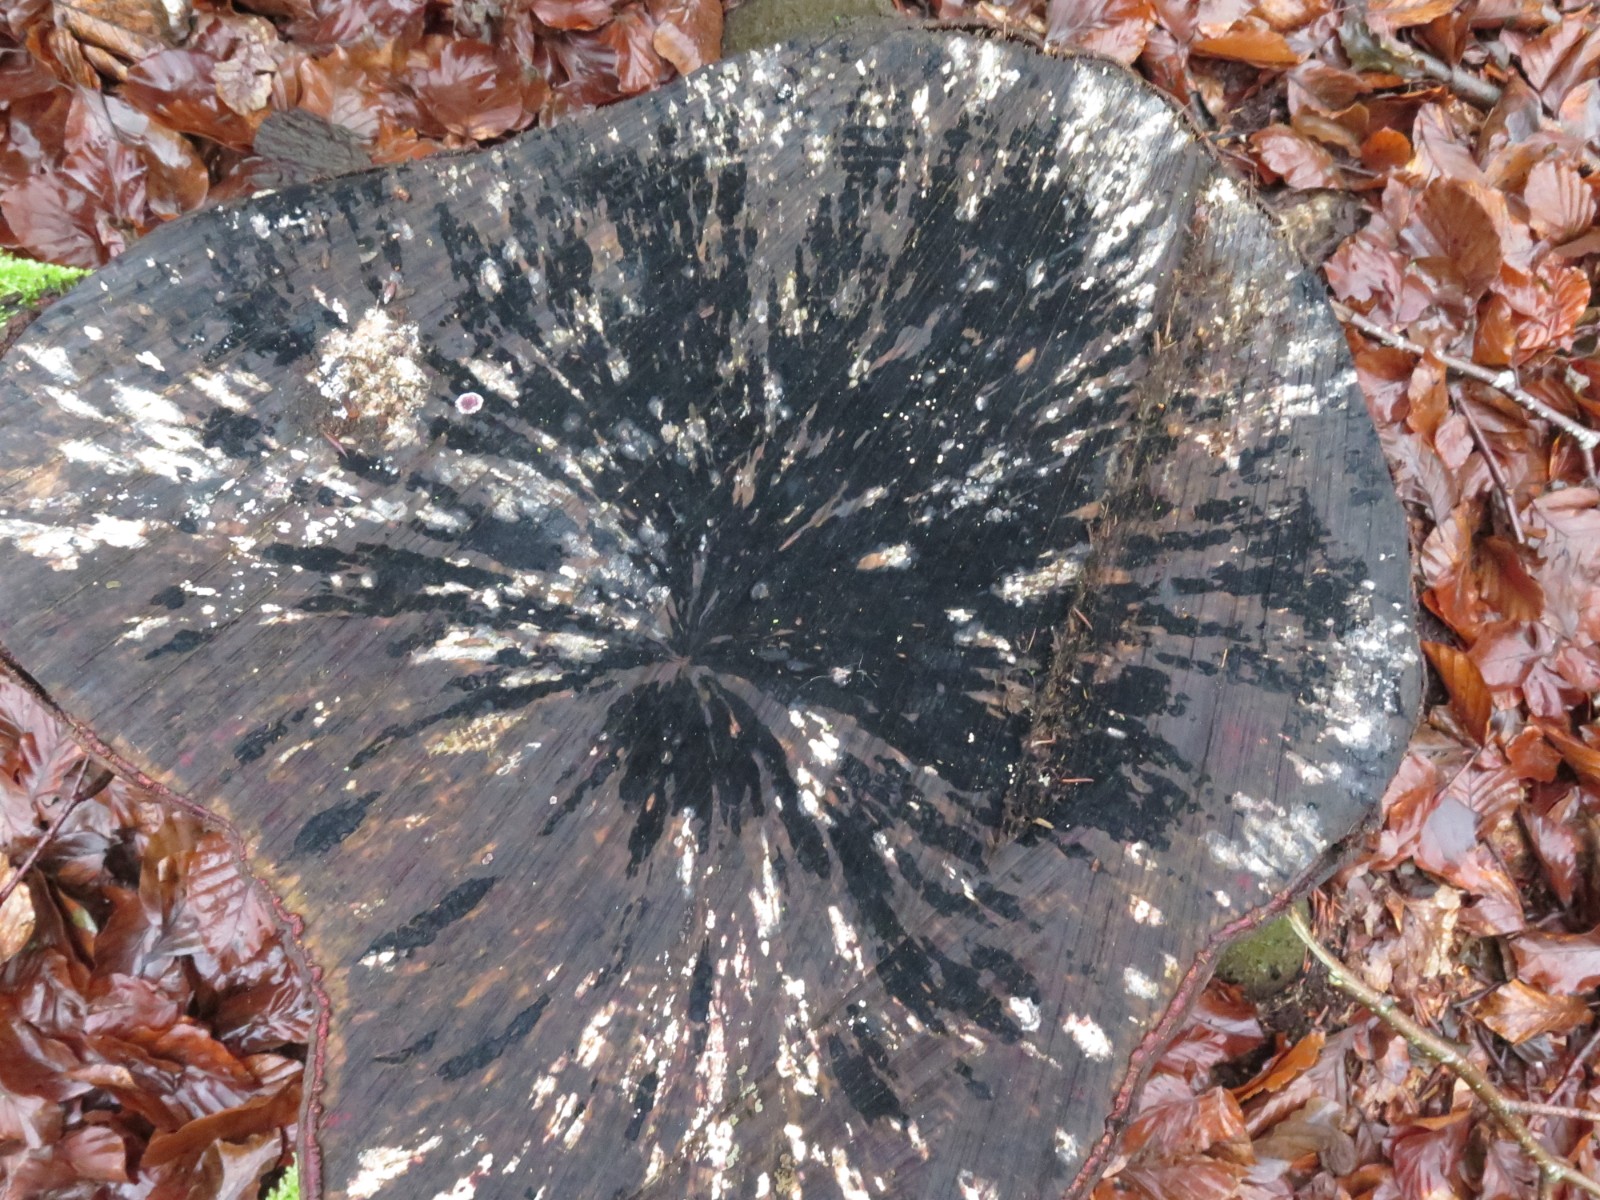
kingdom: Fungi
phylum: Ascomycota
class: Leotiomycetes
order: Helotiales
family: Helotiaceae
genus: Bispora
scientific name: Bispora pallescens
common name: måtte-snitskive
